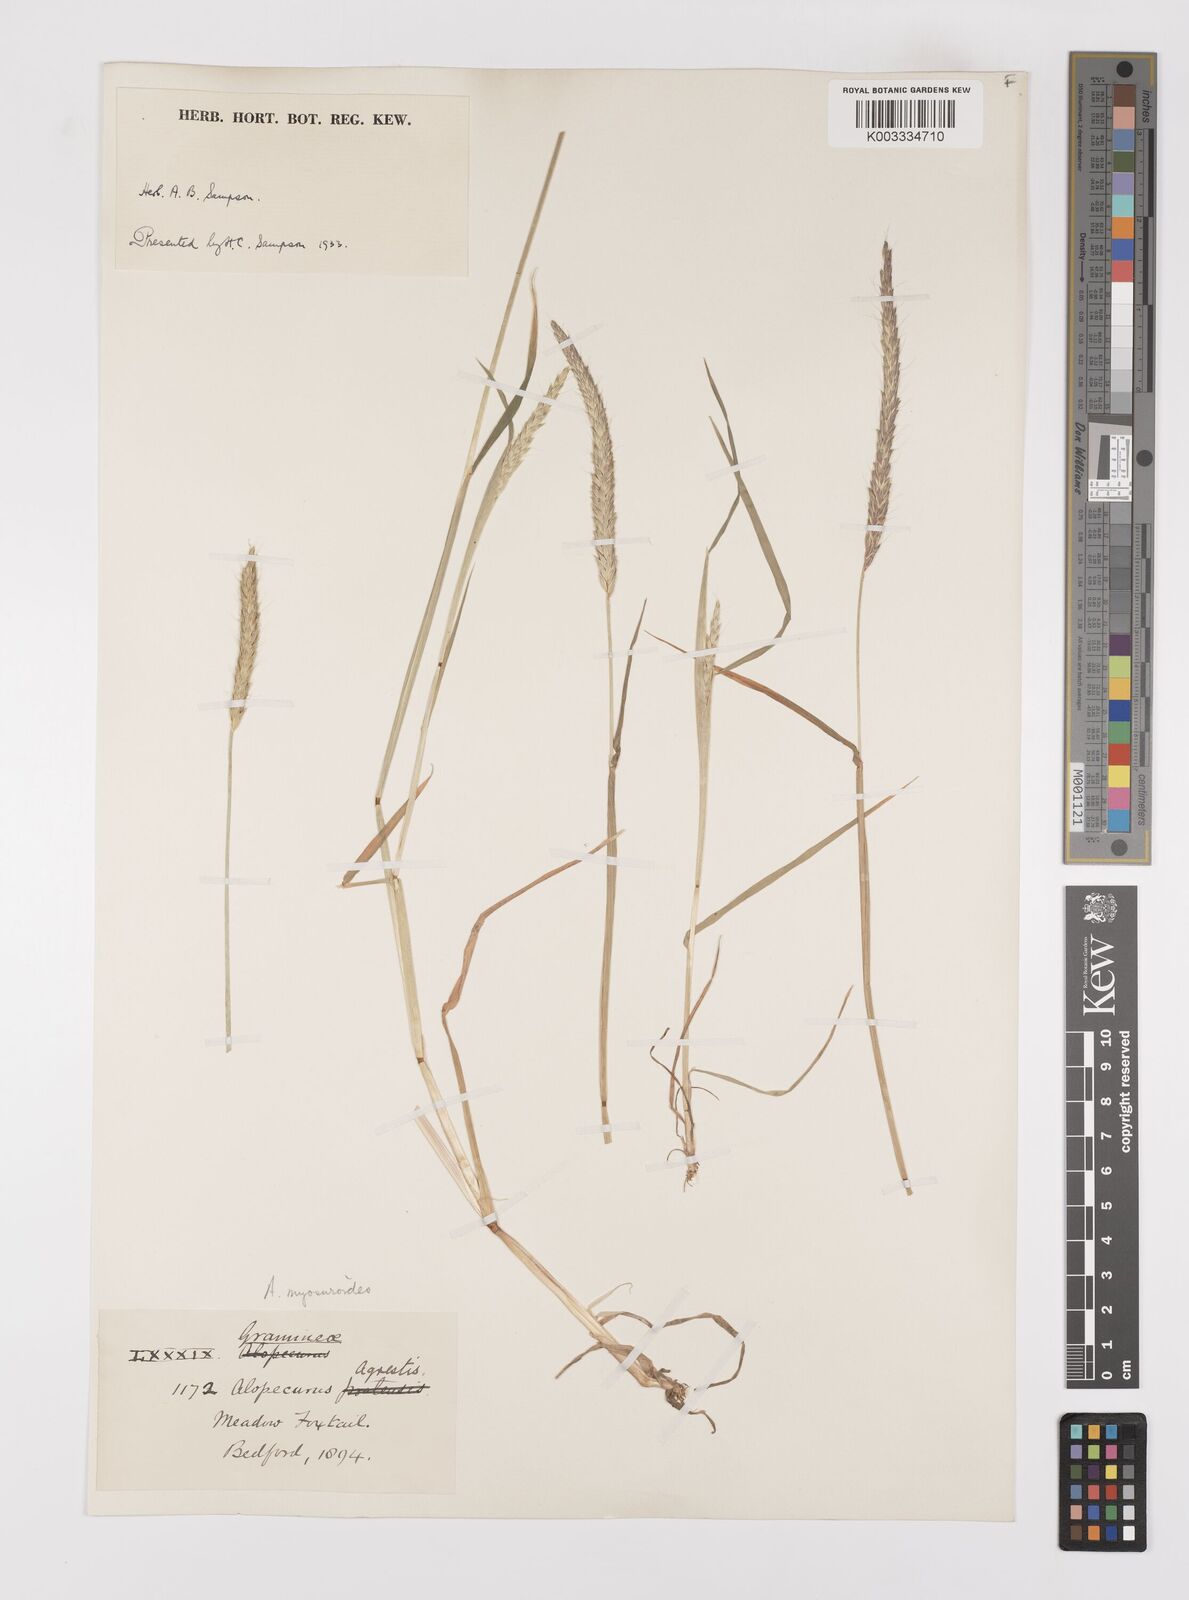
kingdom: Plantae
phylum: Tracheophyta
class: Liliopsida
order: Poales
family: Poaceae
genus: Alopecurus
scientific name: Alopecurus myosuroides
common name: Black-grass
